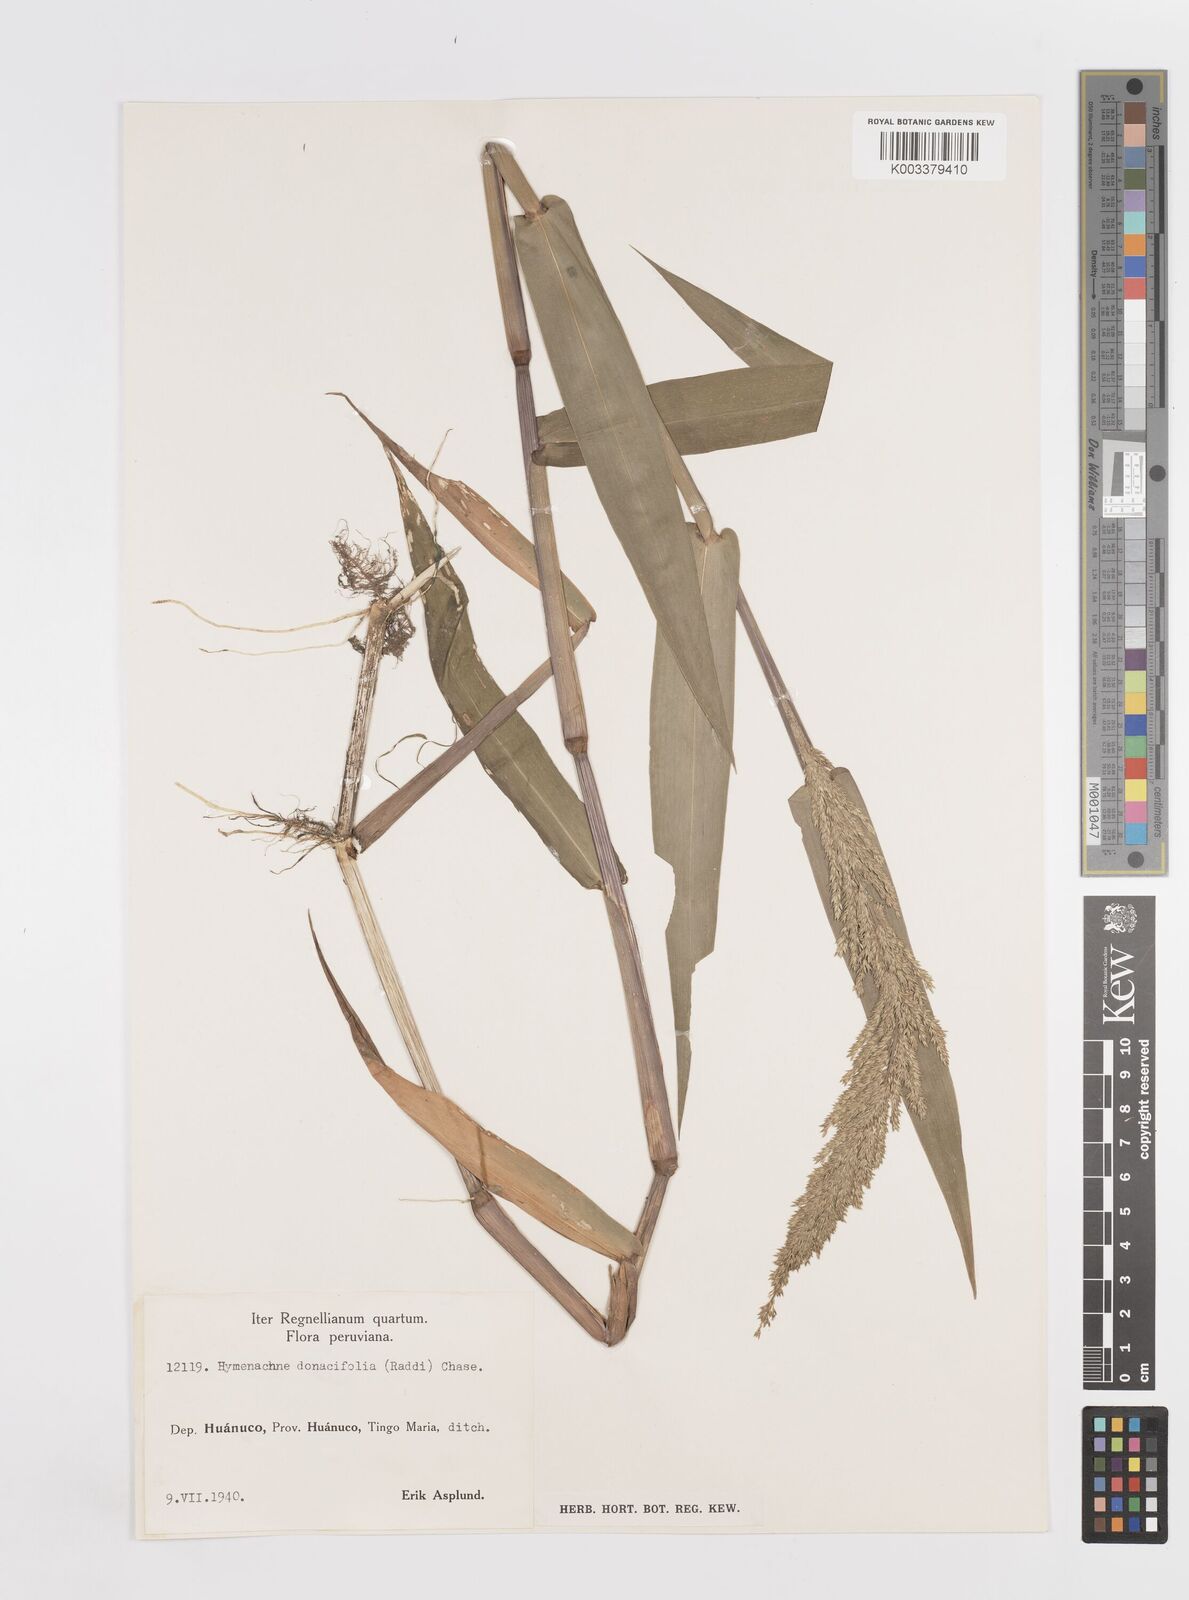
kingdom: Plantae
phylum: Tracheophyta
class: Liliopsida
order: Poales
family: Poaceae
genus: Hymenachne
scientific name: Hymenachne donacifolia
